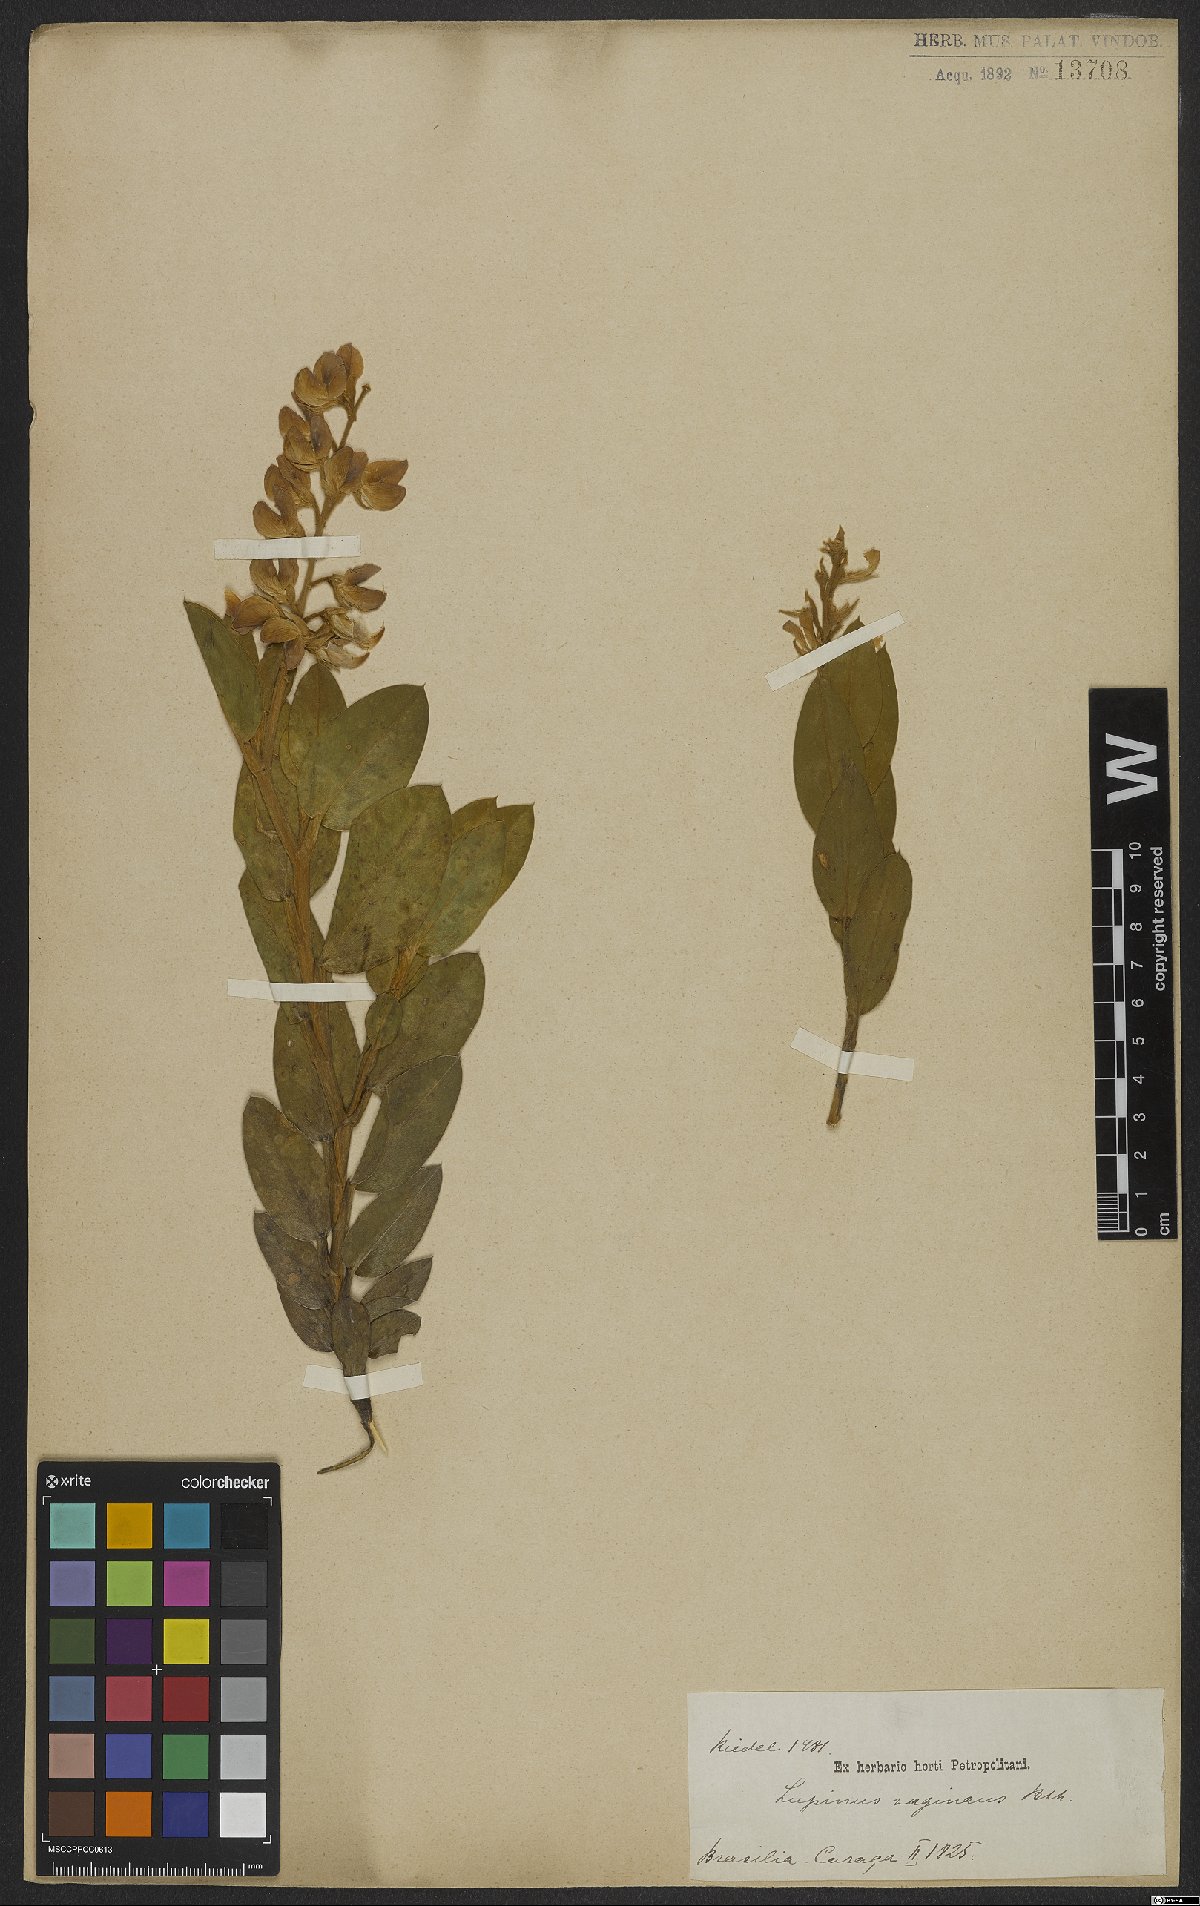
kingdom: Plantae
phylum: Tracheophyta
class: Magnoliopsida
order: Fabales
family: Fabaceae
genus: Lupinus
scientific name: Lupinus velutinus
